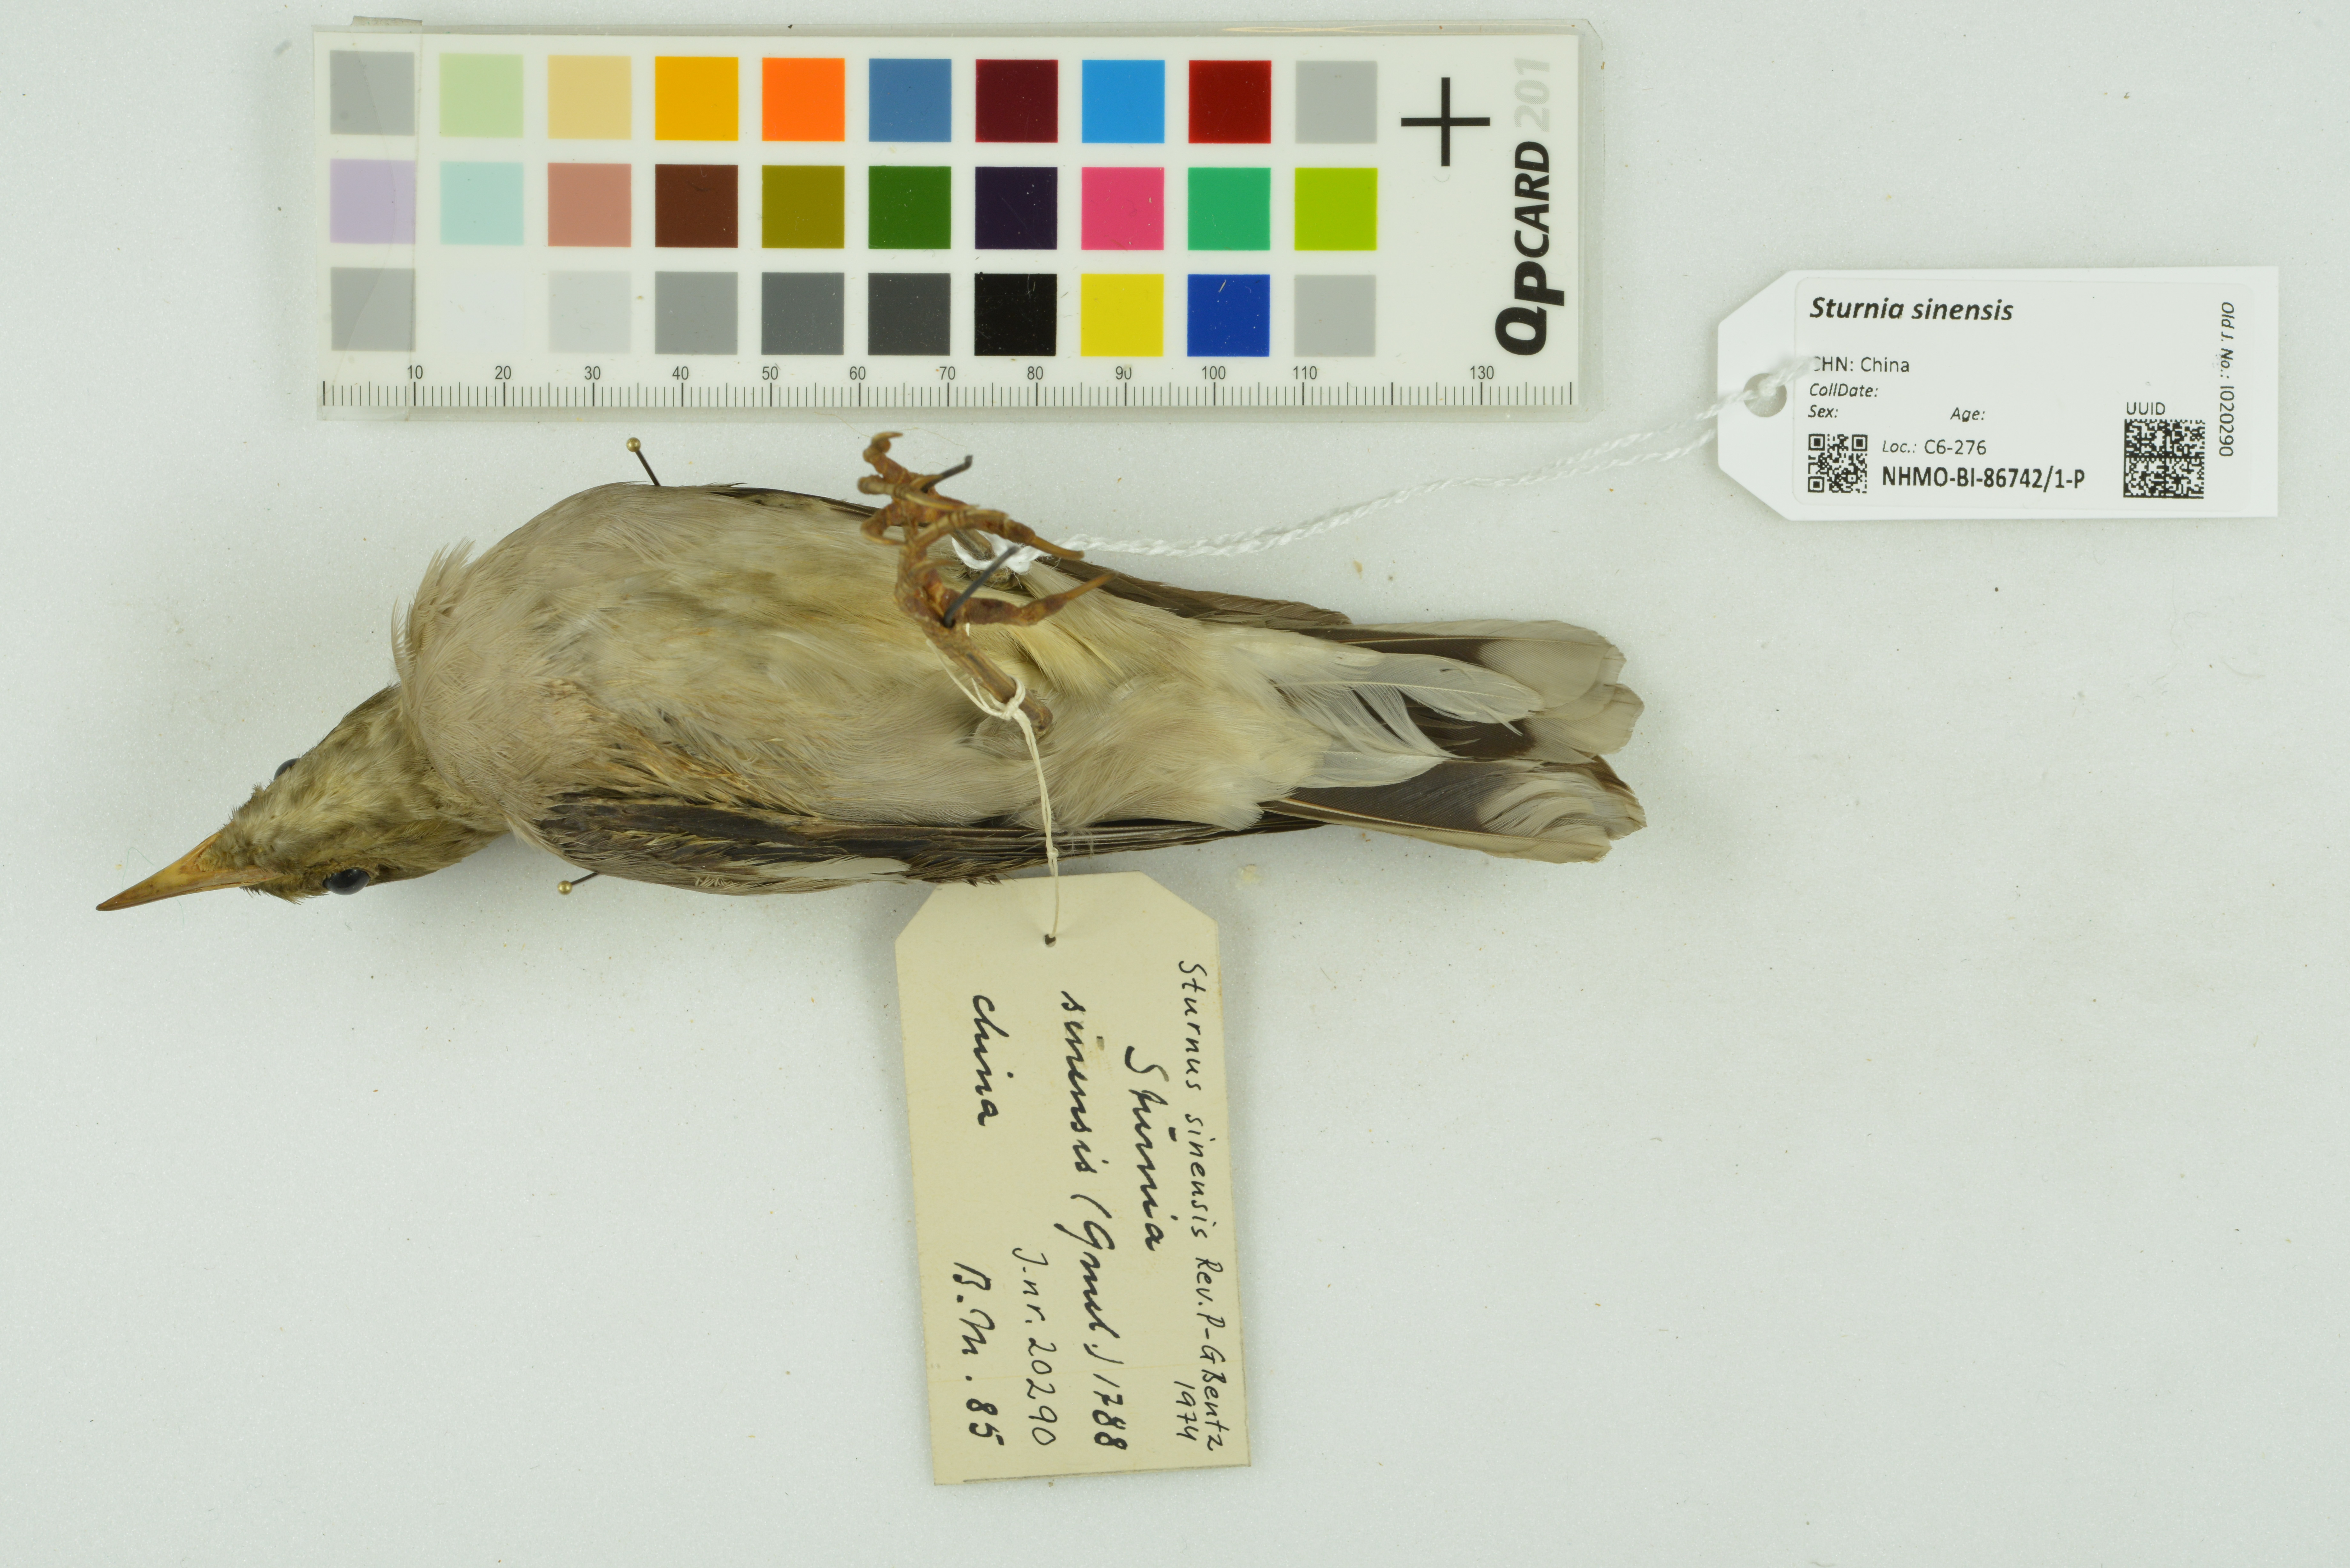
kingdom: Animalia
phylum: Chordata
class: Aves
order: Passeriformes
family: Sturnidae
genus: Sturnia
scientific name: Sturnia sinensis
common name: White-shouldered starling
